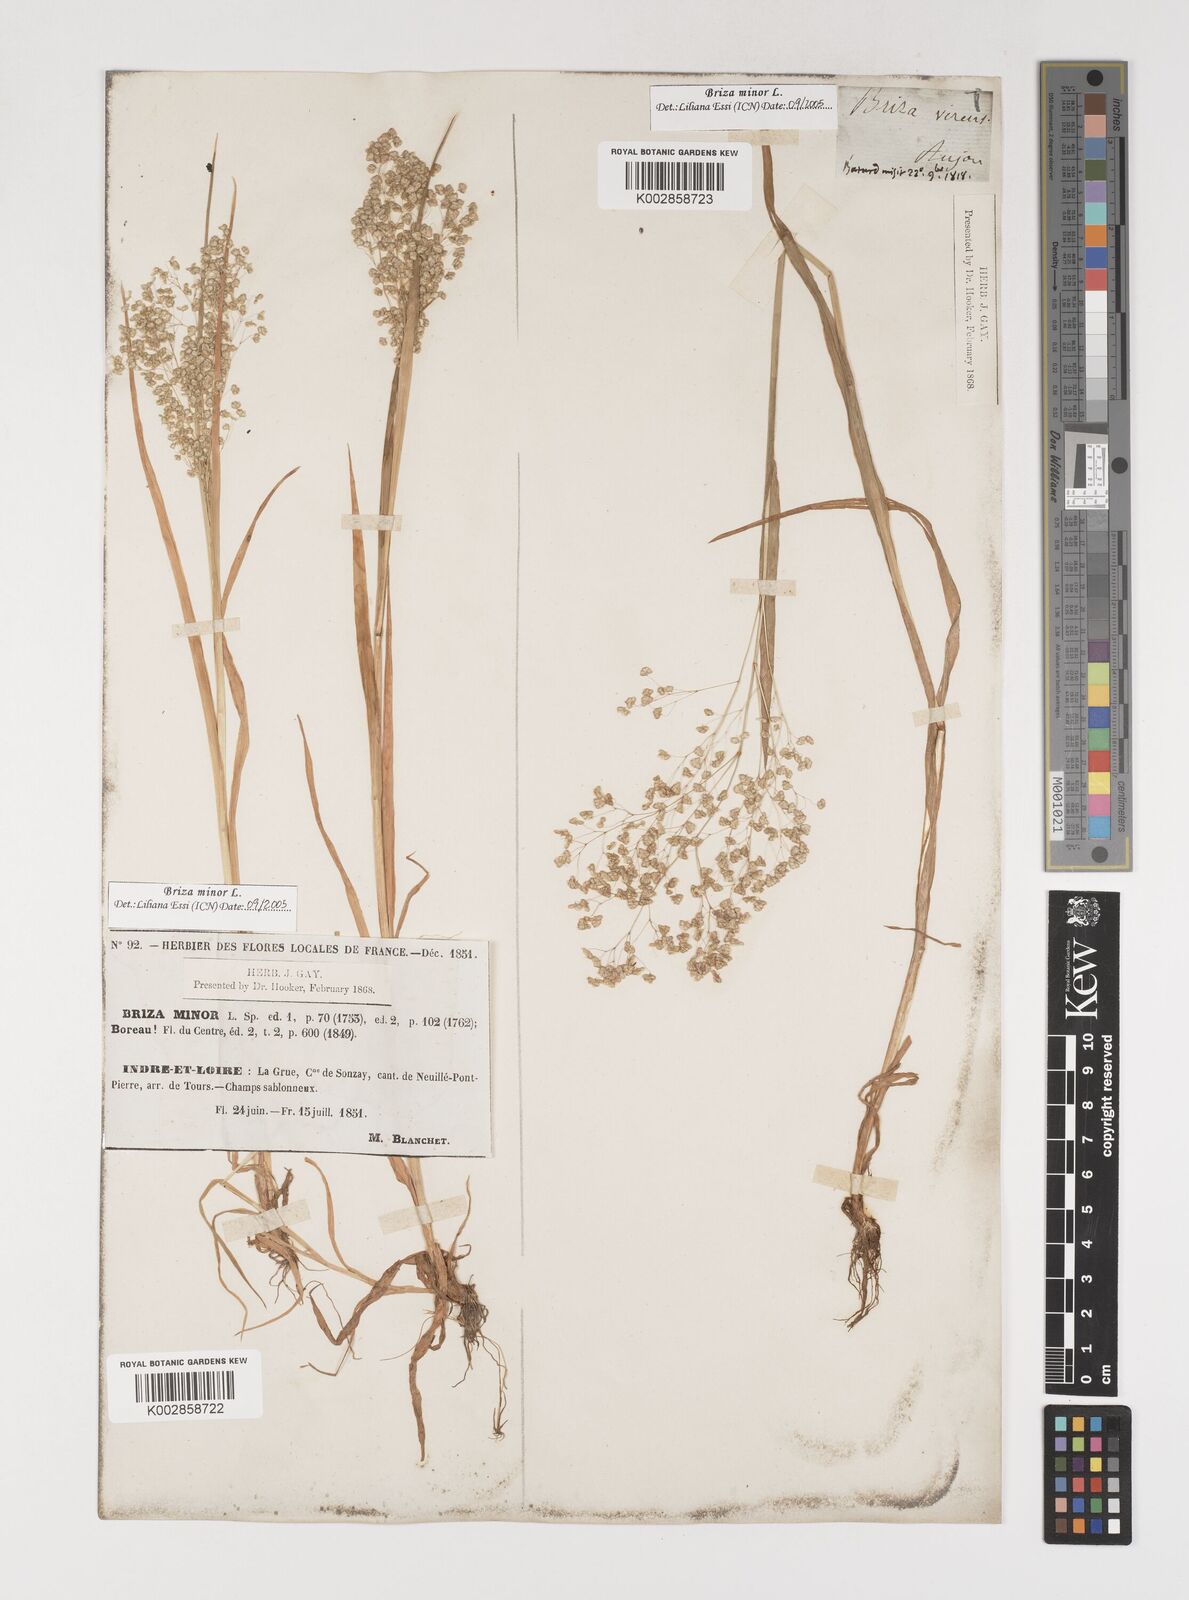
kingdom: Plantae
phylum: Tracheophyta
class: Liliopsida
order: Poales
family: Poaceae
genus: Briza
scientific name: Briza minor
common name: Lesser quaking-grass
